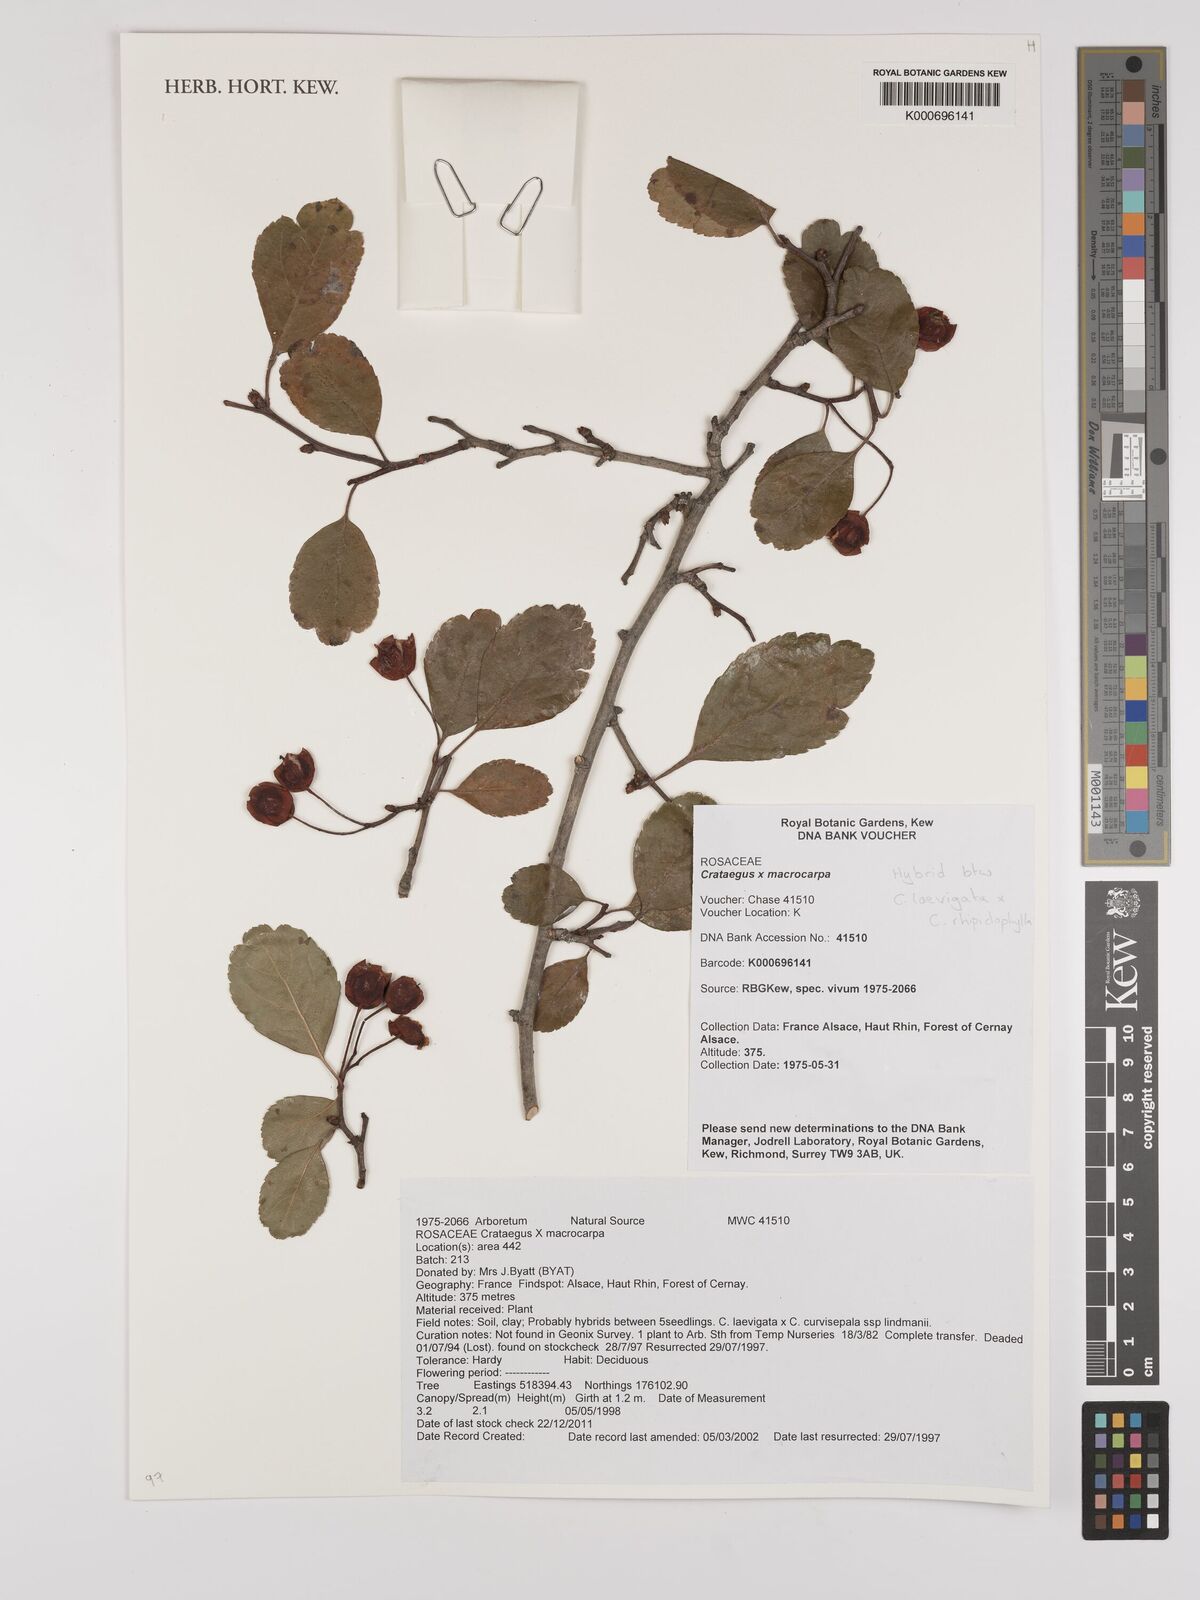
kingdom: Plantae
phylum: Tracheophyta
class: Magnoliopsida
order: Rosales
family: Rosaceae
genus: Crataegus
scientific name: Crataegus
